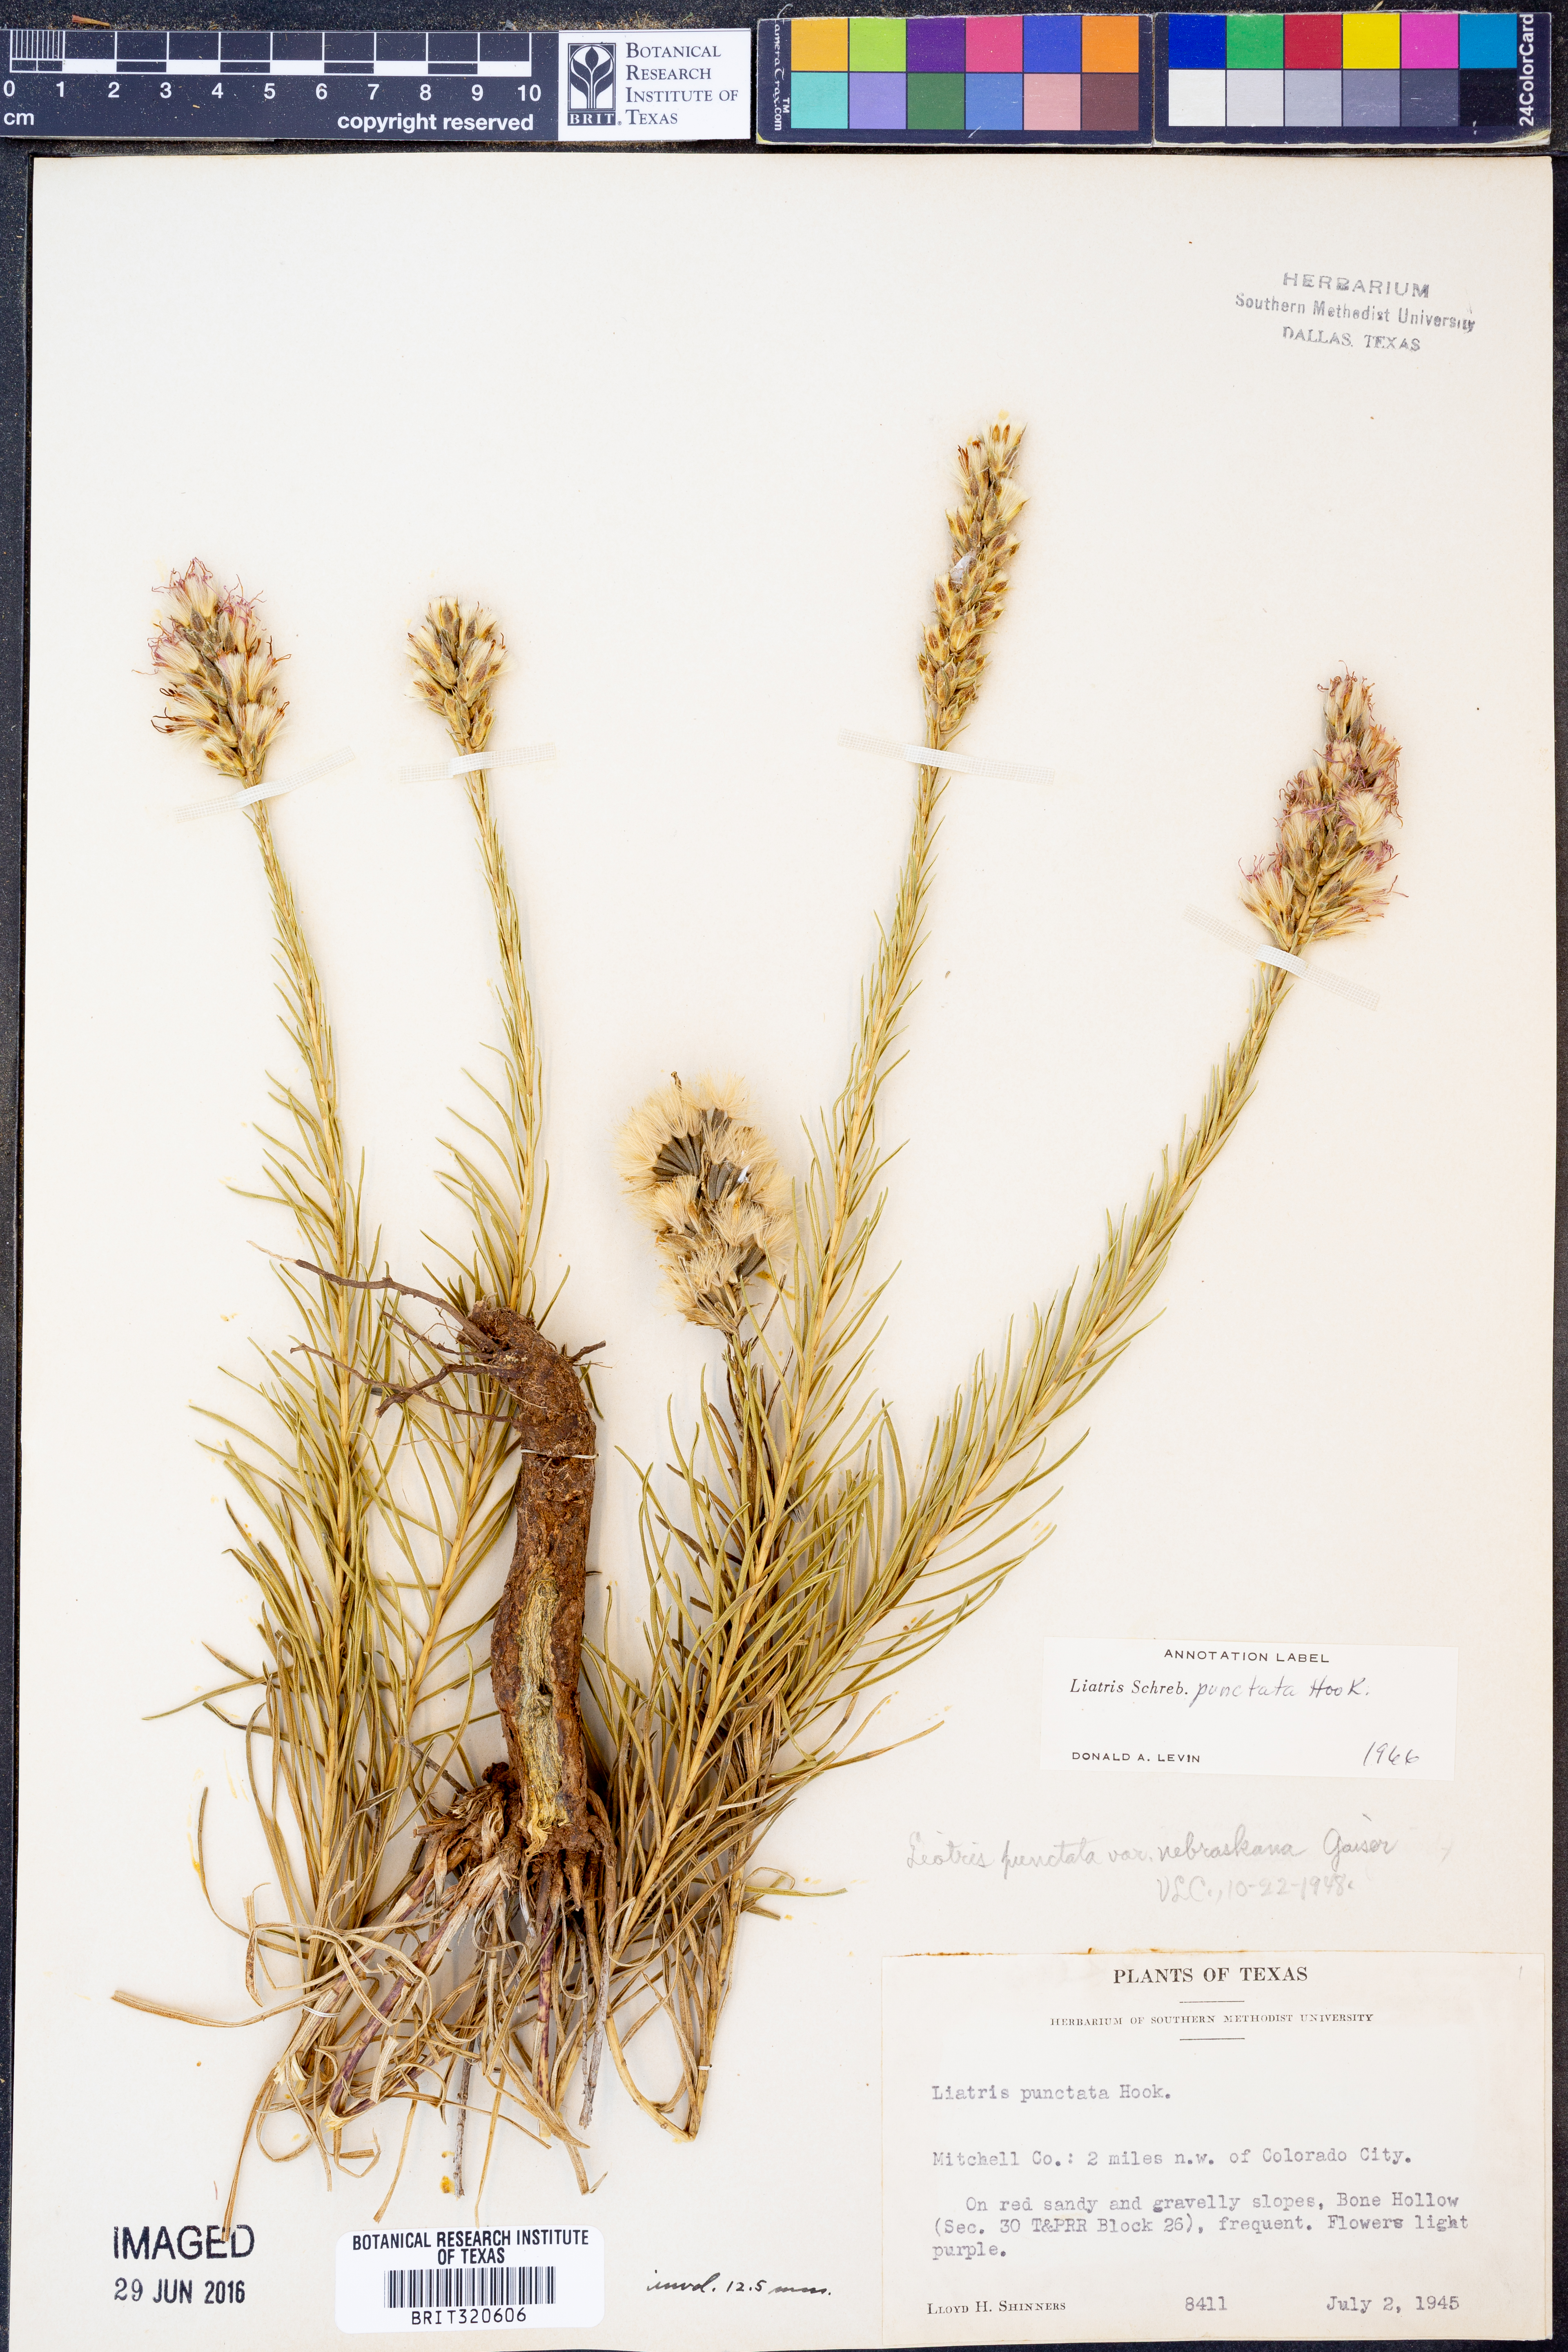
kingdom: Plantae
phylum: Tracheophyta
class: Magnoliopsida
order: Asterales
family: Asteraceae
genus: Liatris
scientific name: Liatris punctata
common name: Dotted gayfeather
